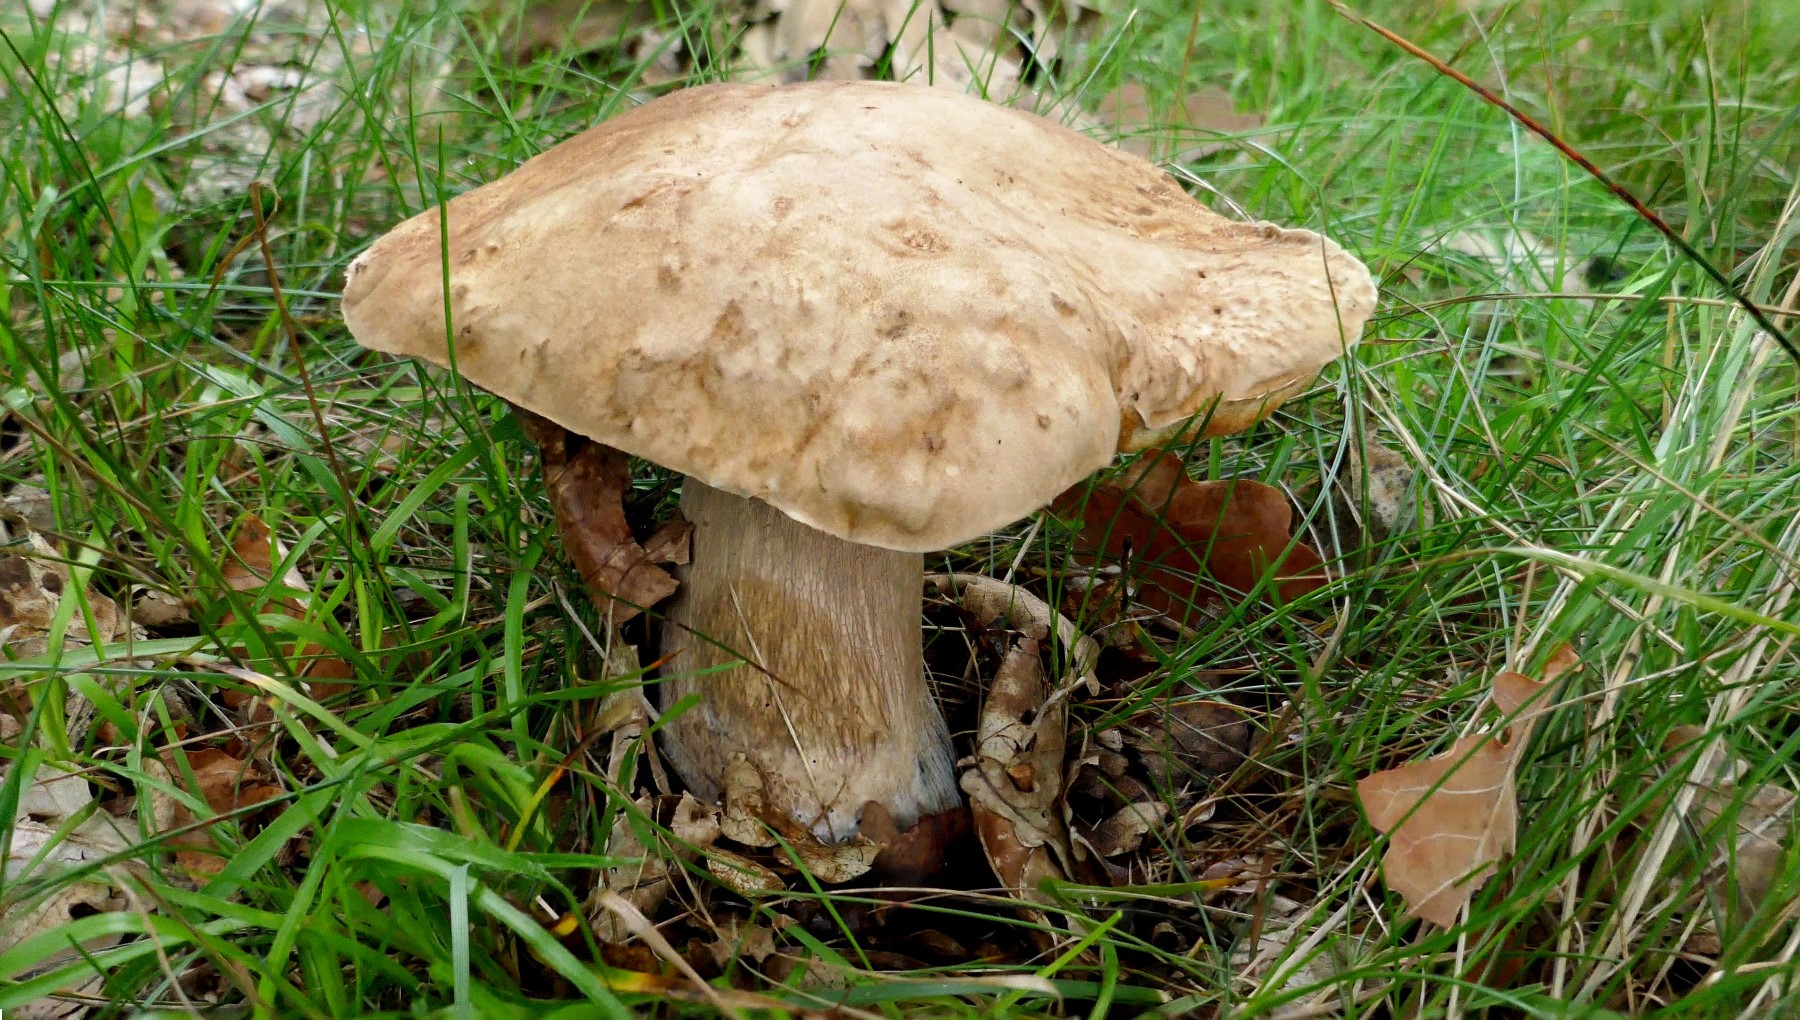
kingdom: Fungi
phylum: Basidiomycota
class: Agaricomycetes
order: Boletales
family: Boletaceae
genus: Boletus
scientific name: Boletus reticulatus
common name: sommer-rørhat
